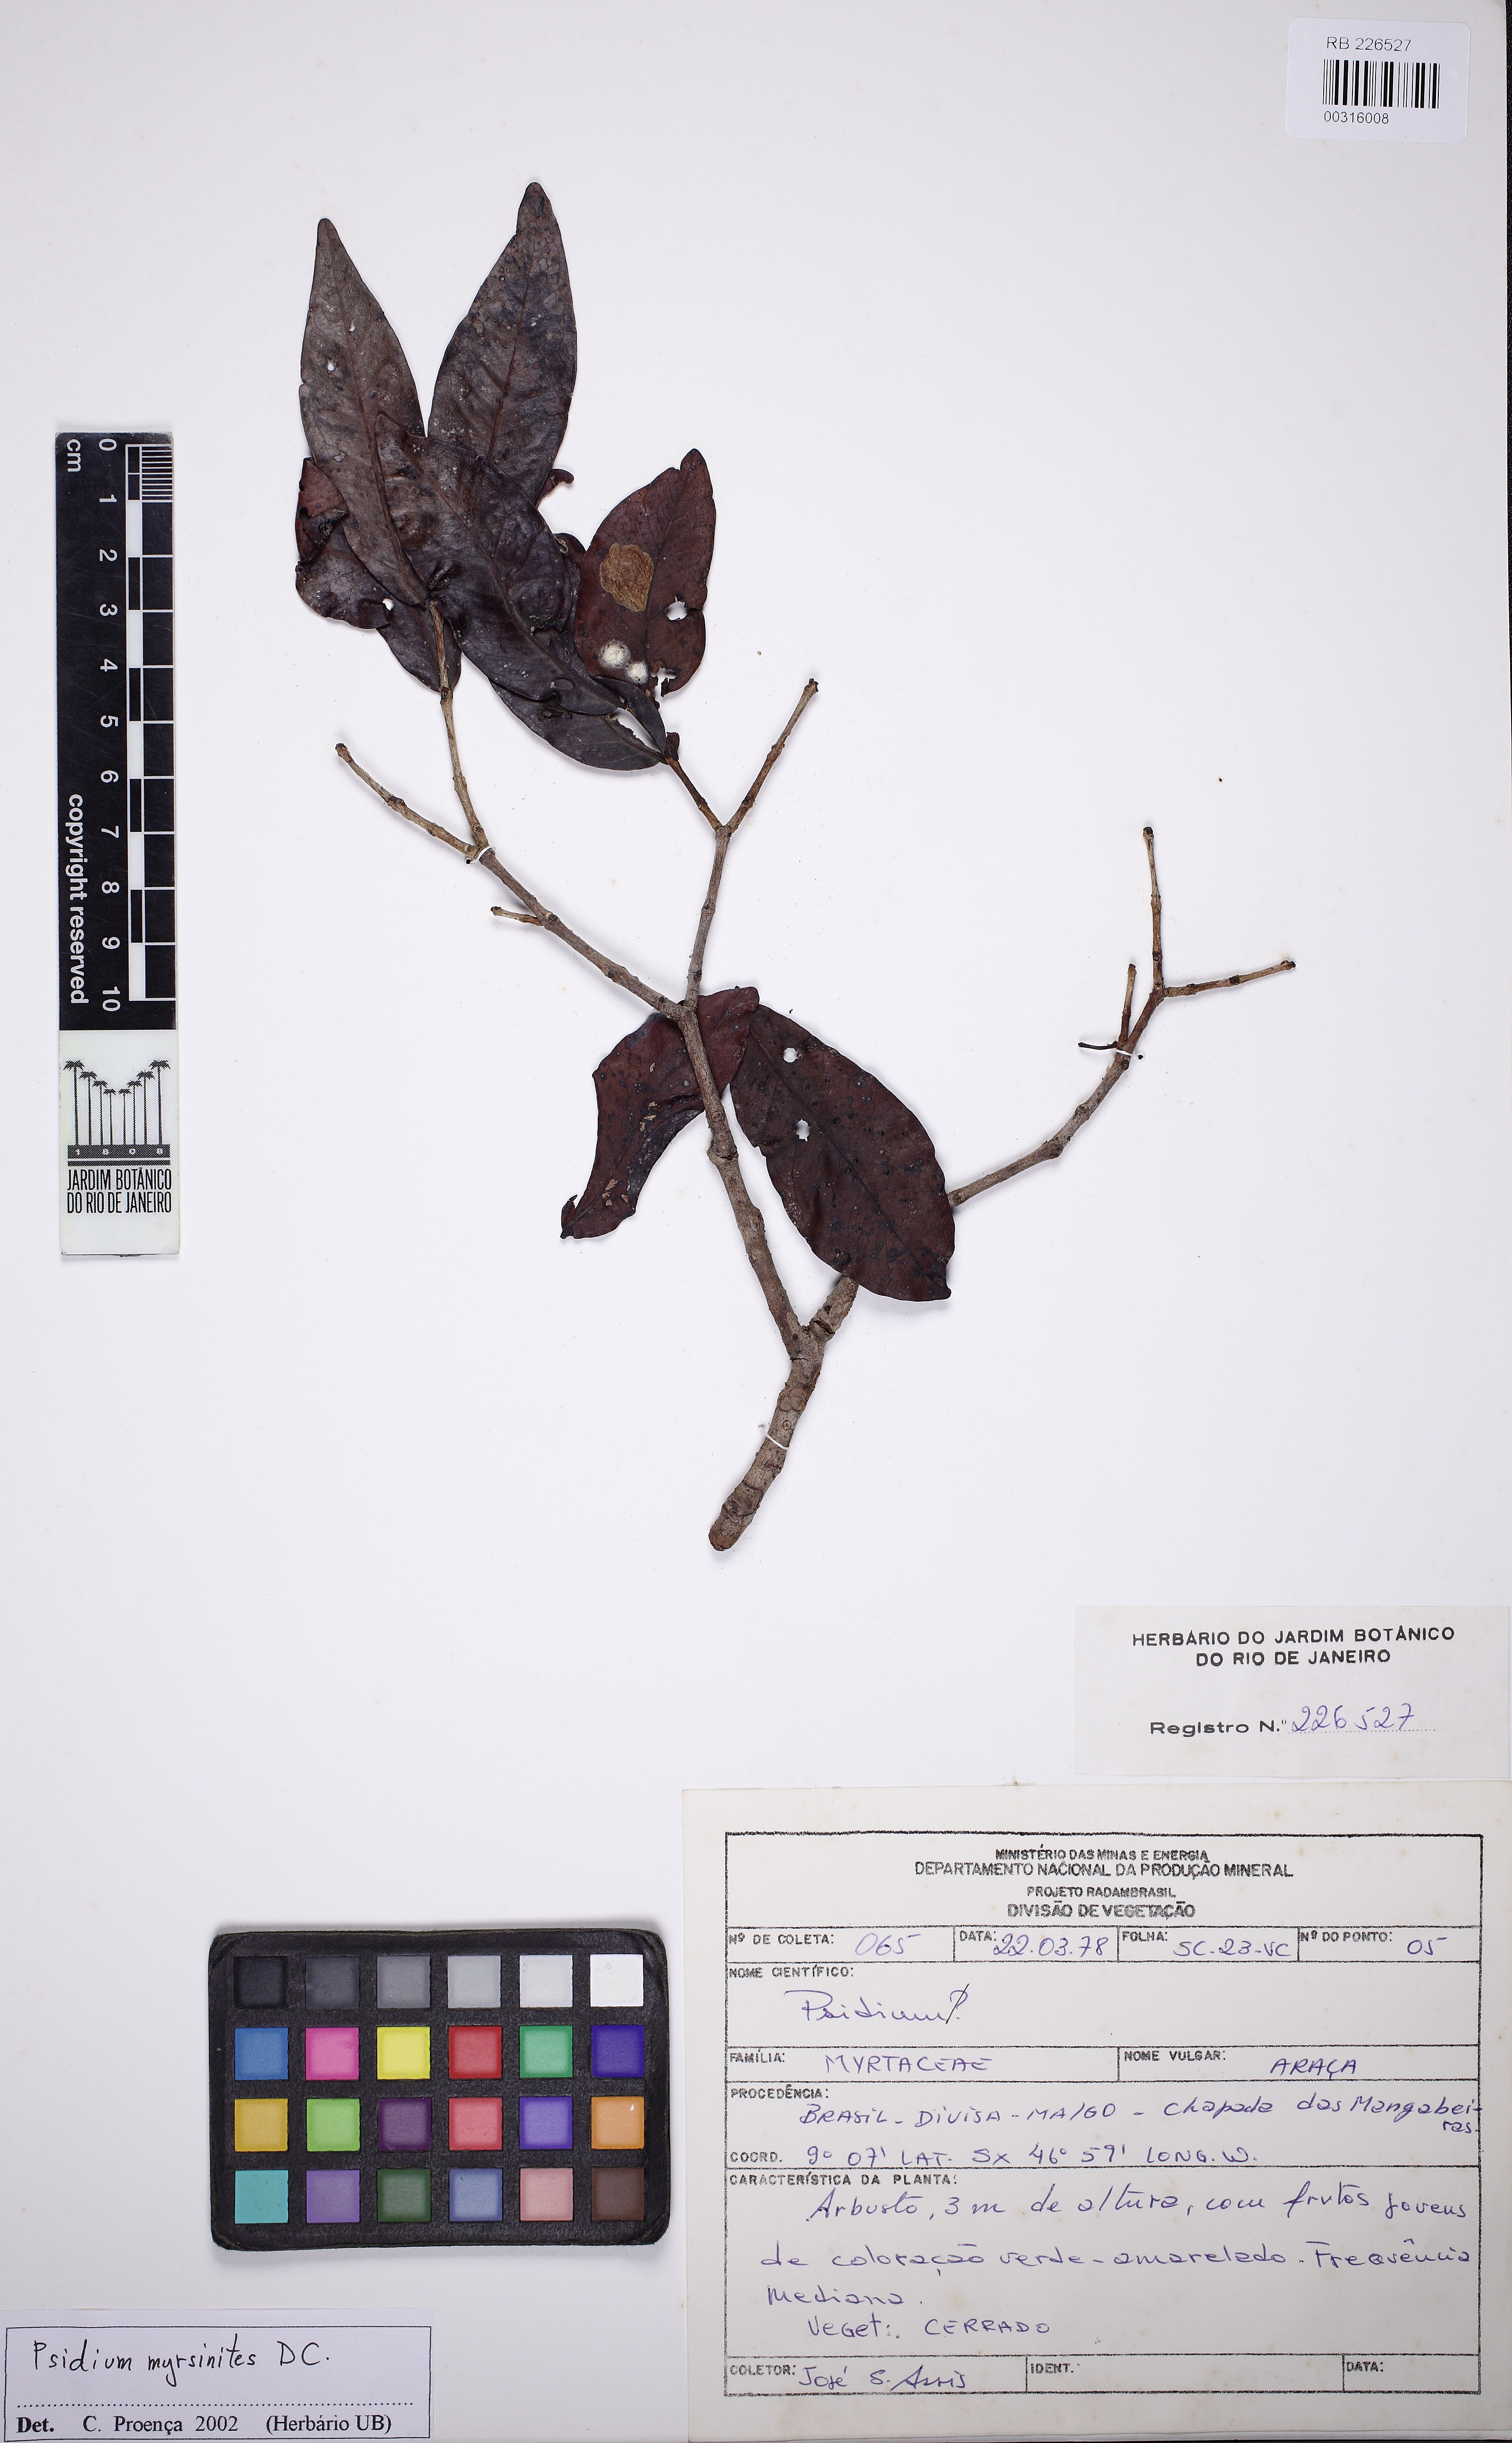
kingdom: Plantae
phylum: Tracheophyta
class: Magnoliopsida
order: Myrtales
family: Myrtaceae
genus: Psidium
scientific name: Psidium myrsinites
